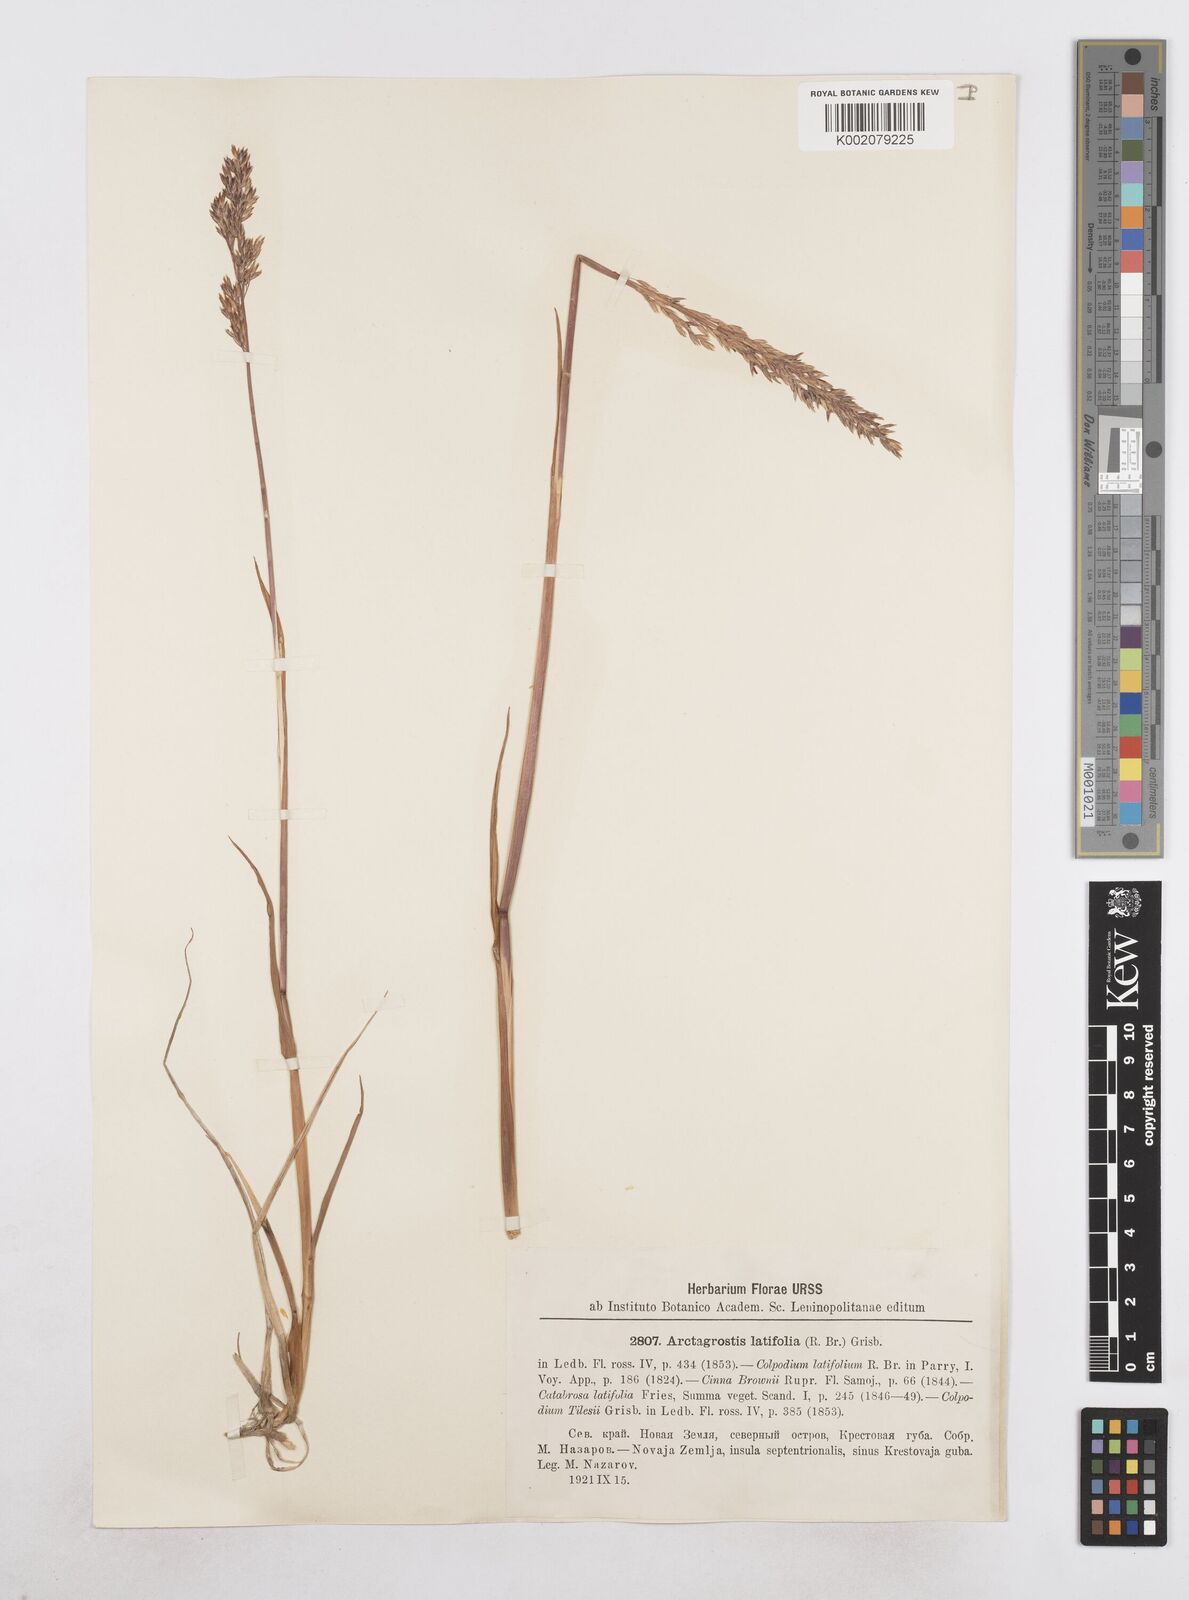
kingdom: Plantae
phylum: Tracheophyta
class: Liliopsida
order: Poales
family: Poaceae
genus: Arctagrostis
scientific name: Arctagrostis latifolia
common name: Arctic grass
